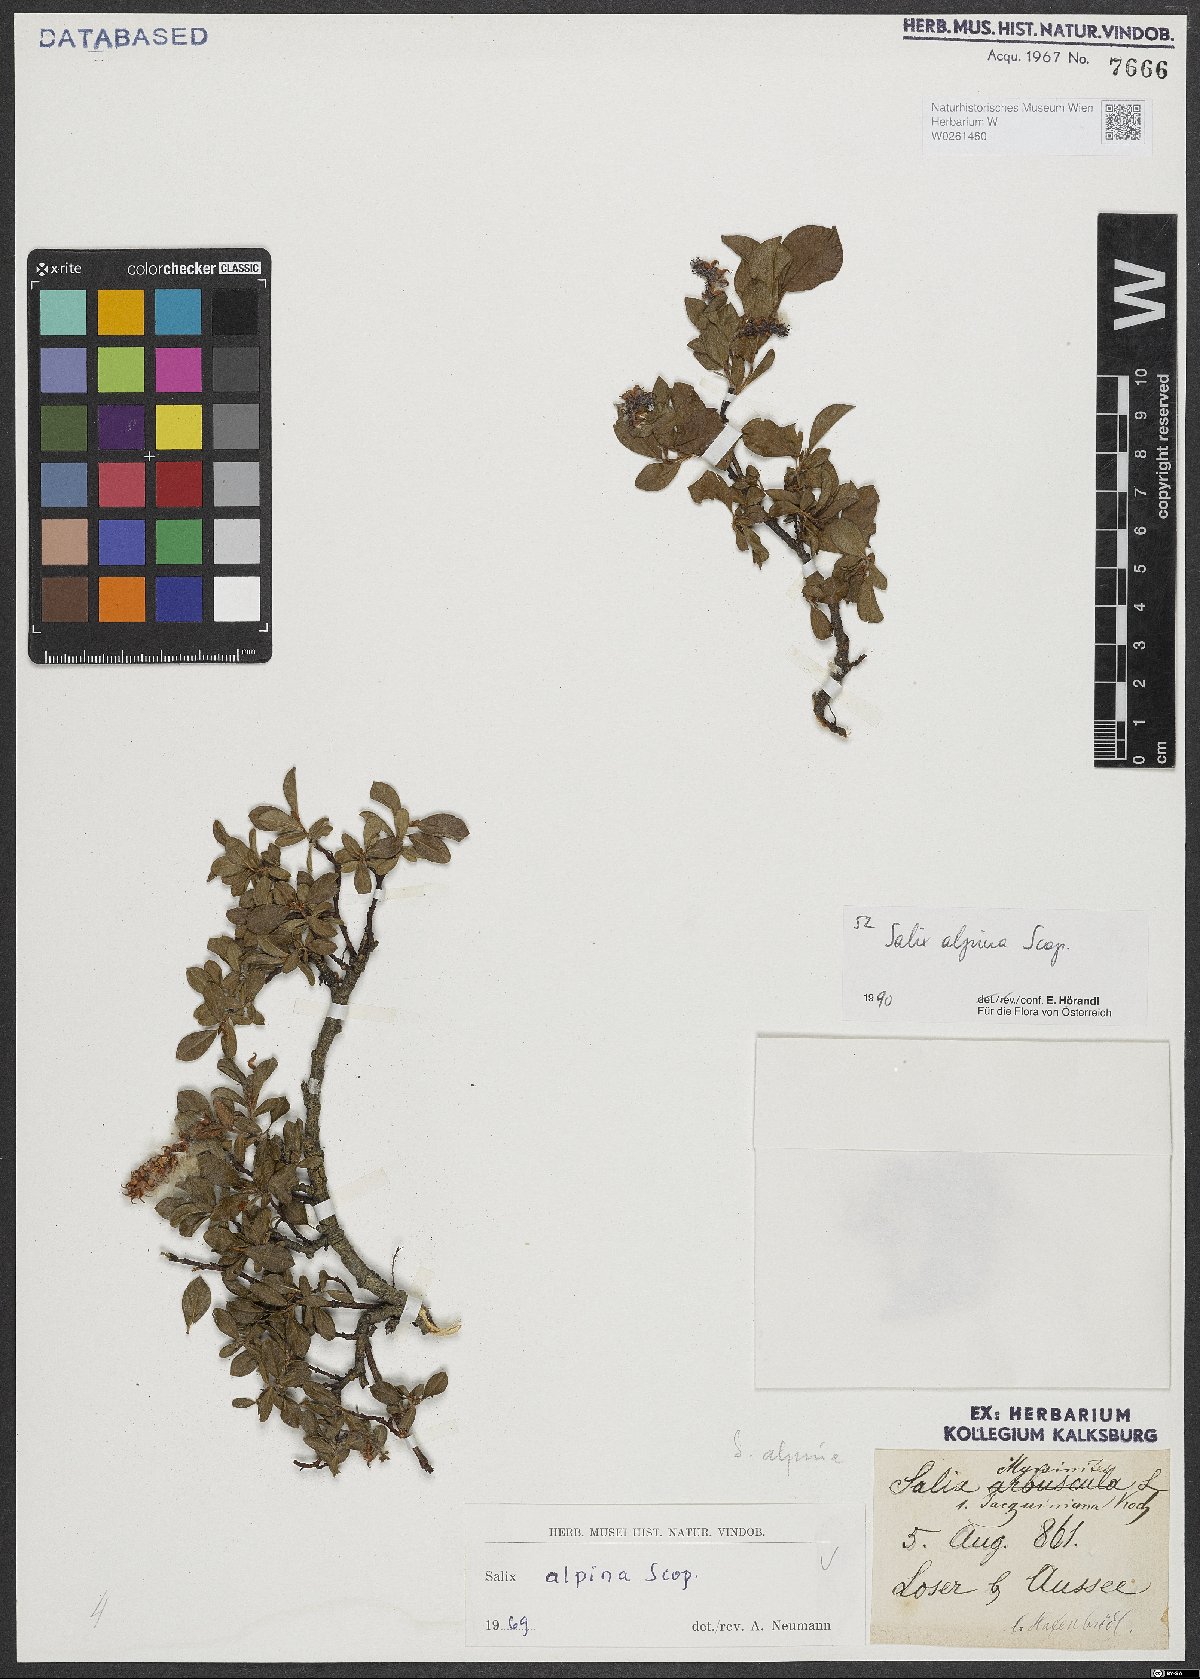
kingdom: Plantae
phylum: Tracheophyta
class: Magnoliopsida
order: Malpighiales
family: Salicaceae
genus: Salix
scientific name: Salix alpina
